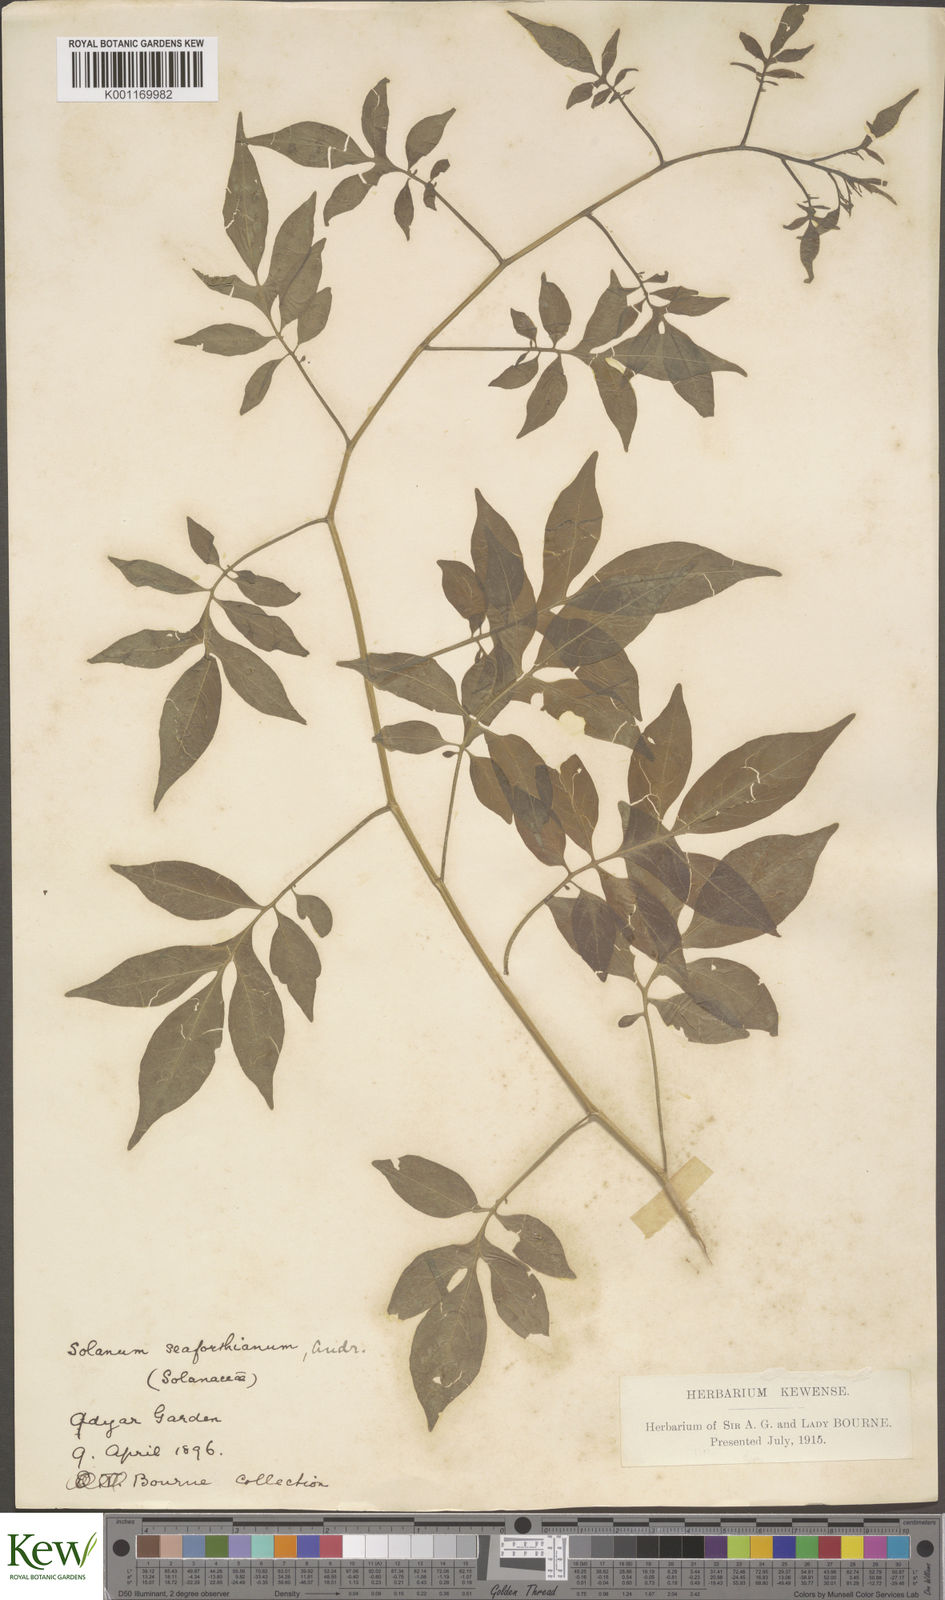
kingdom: Plantae
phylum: Tracheophyta
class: Magnoliopsida
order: Solanales
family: Solanaceae
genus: Solanum
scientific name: Solanum seaforthianum
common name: Brazilian nightshade
